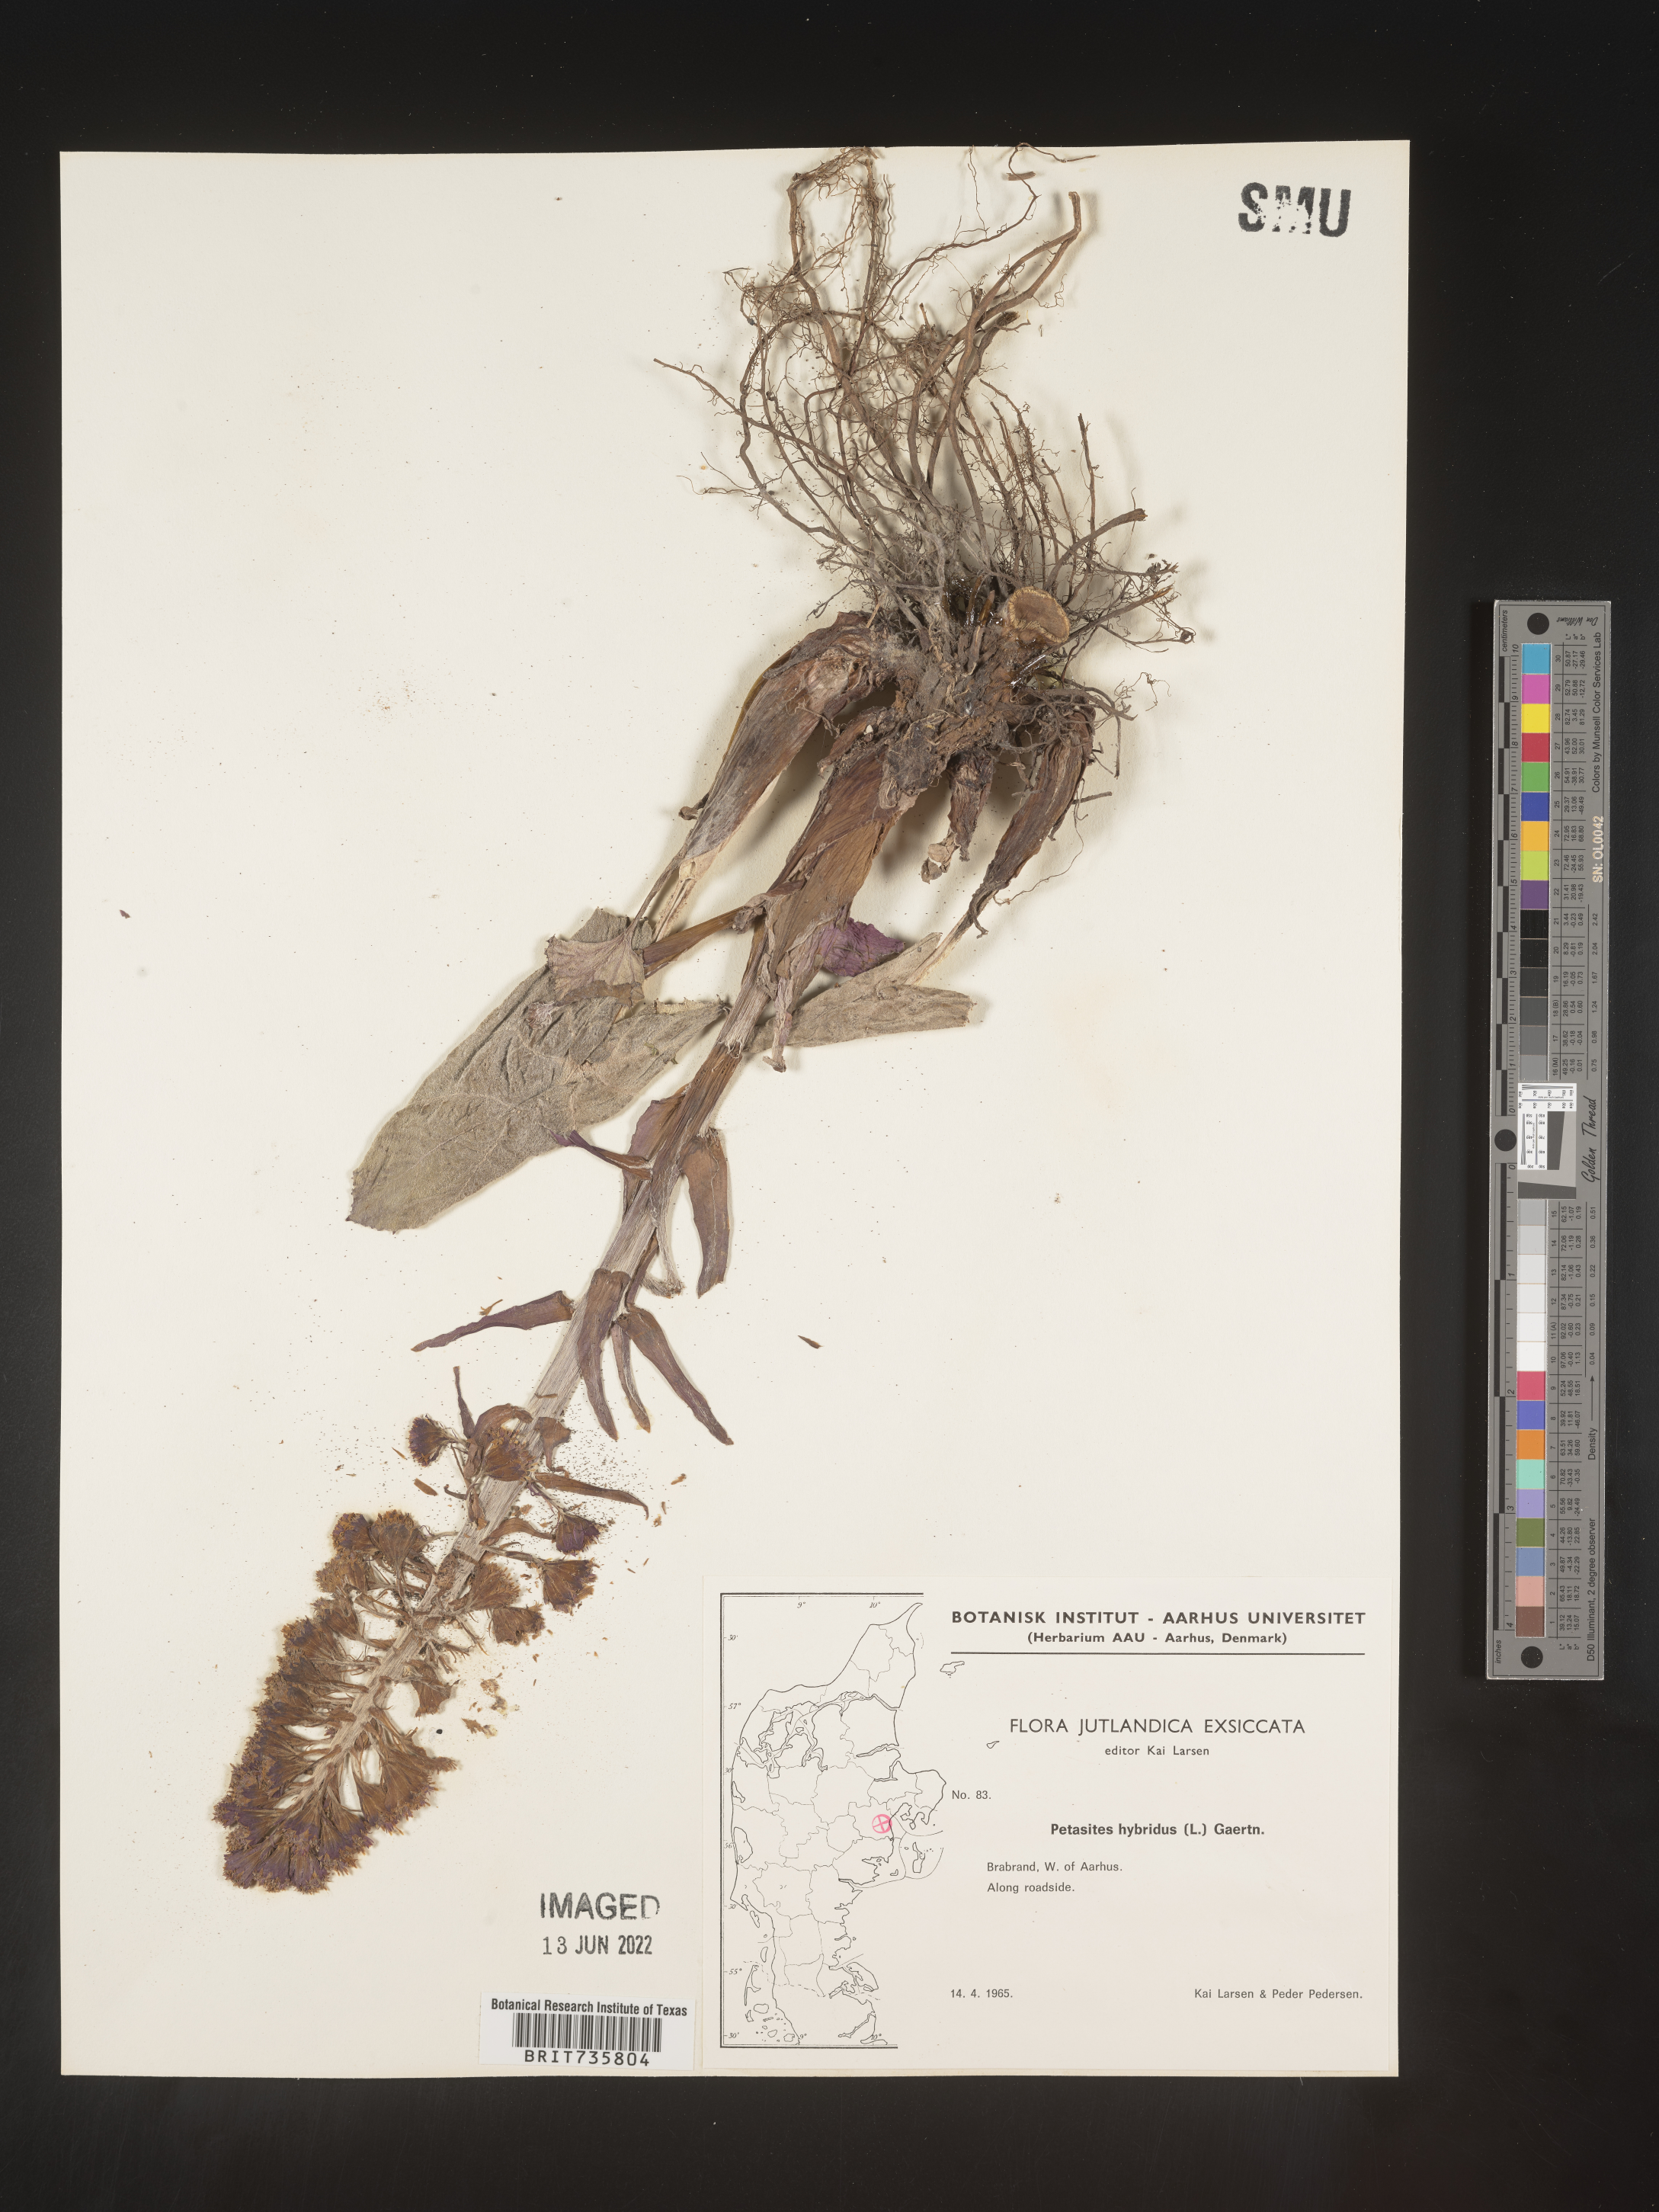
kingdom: Plantae
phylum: Tracheophyta
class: Magnoliopsida
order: Asterales
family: Asteraceae
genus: Petasites
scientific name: Petasites
